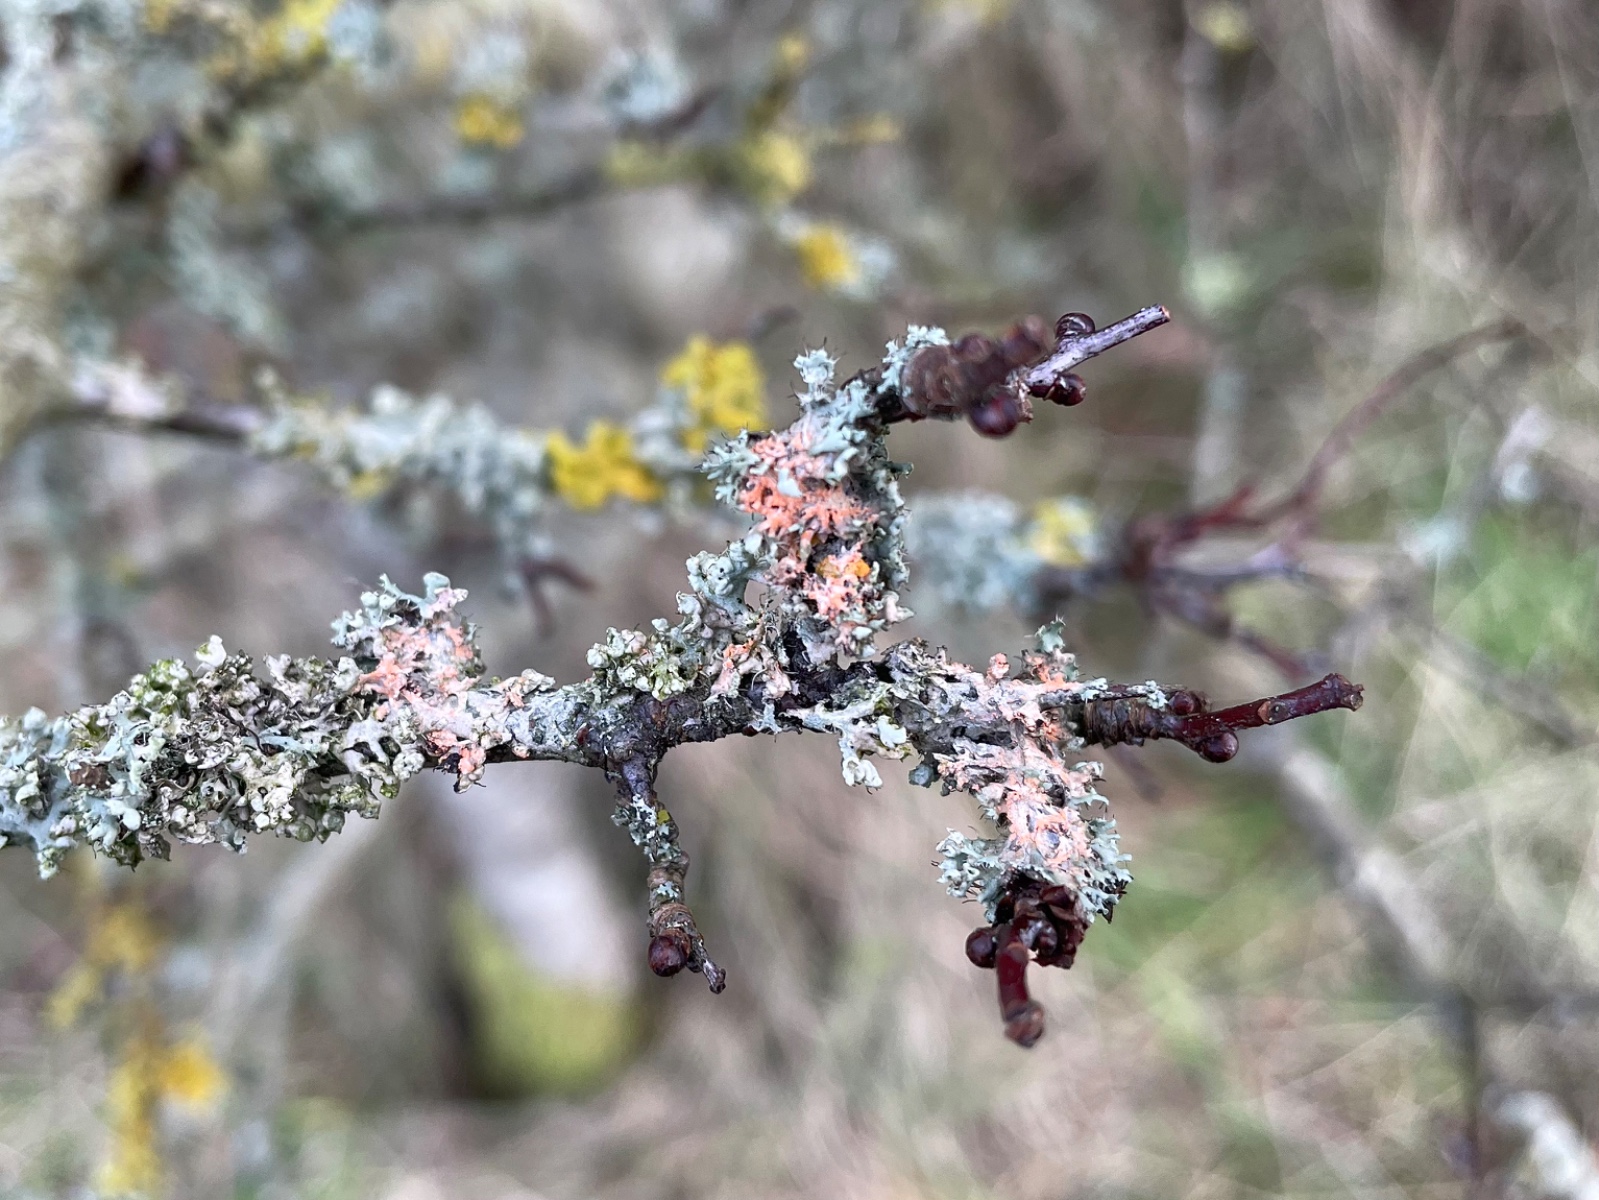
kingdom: Fungi
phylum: Basidiomycota
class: Agaricomycetes
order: Corticiales
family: Corticiaceae
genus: Erythricium
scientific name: Erythricium aurantiacum
